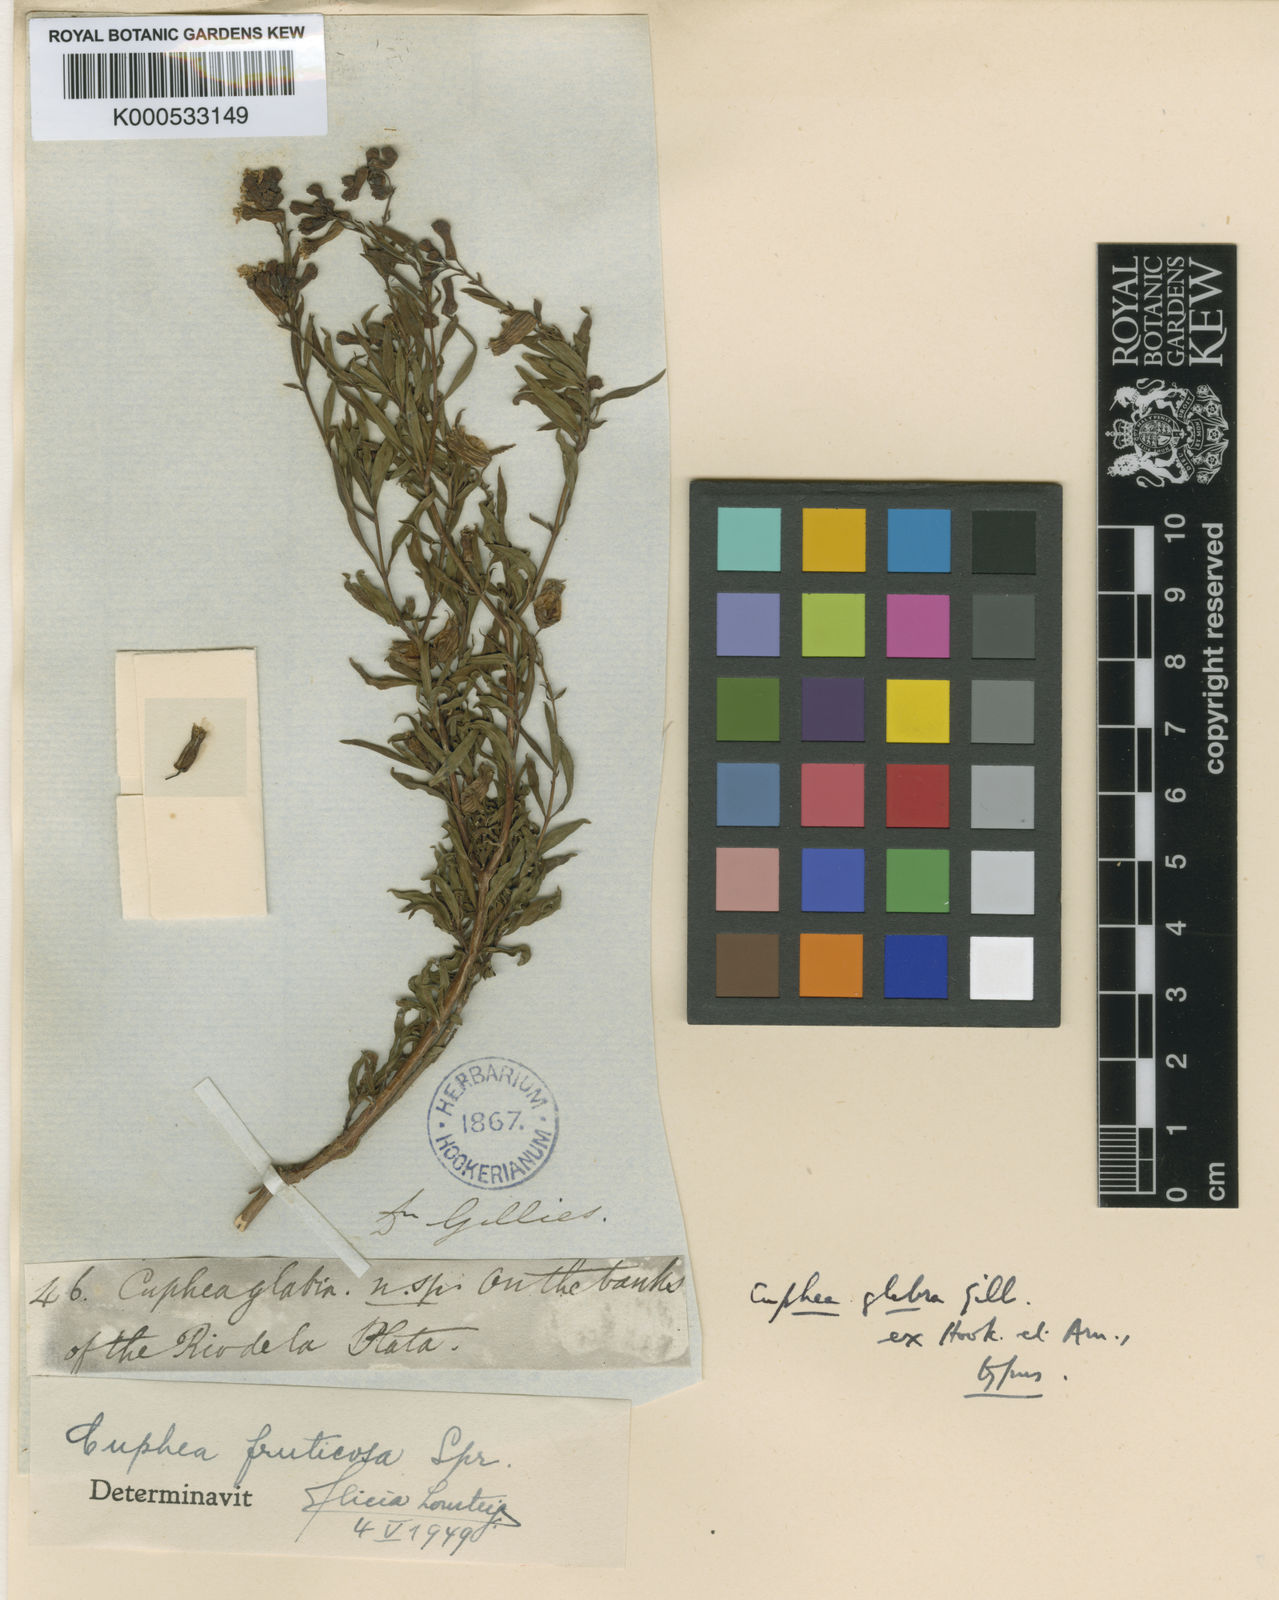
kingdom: Plantae
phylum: Tracheophyta
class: Magnoliopsida
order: Myrtales
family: Lythraceae
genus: Cuphea
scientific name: Cuphea fruticosa
